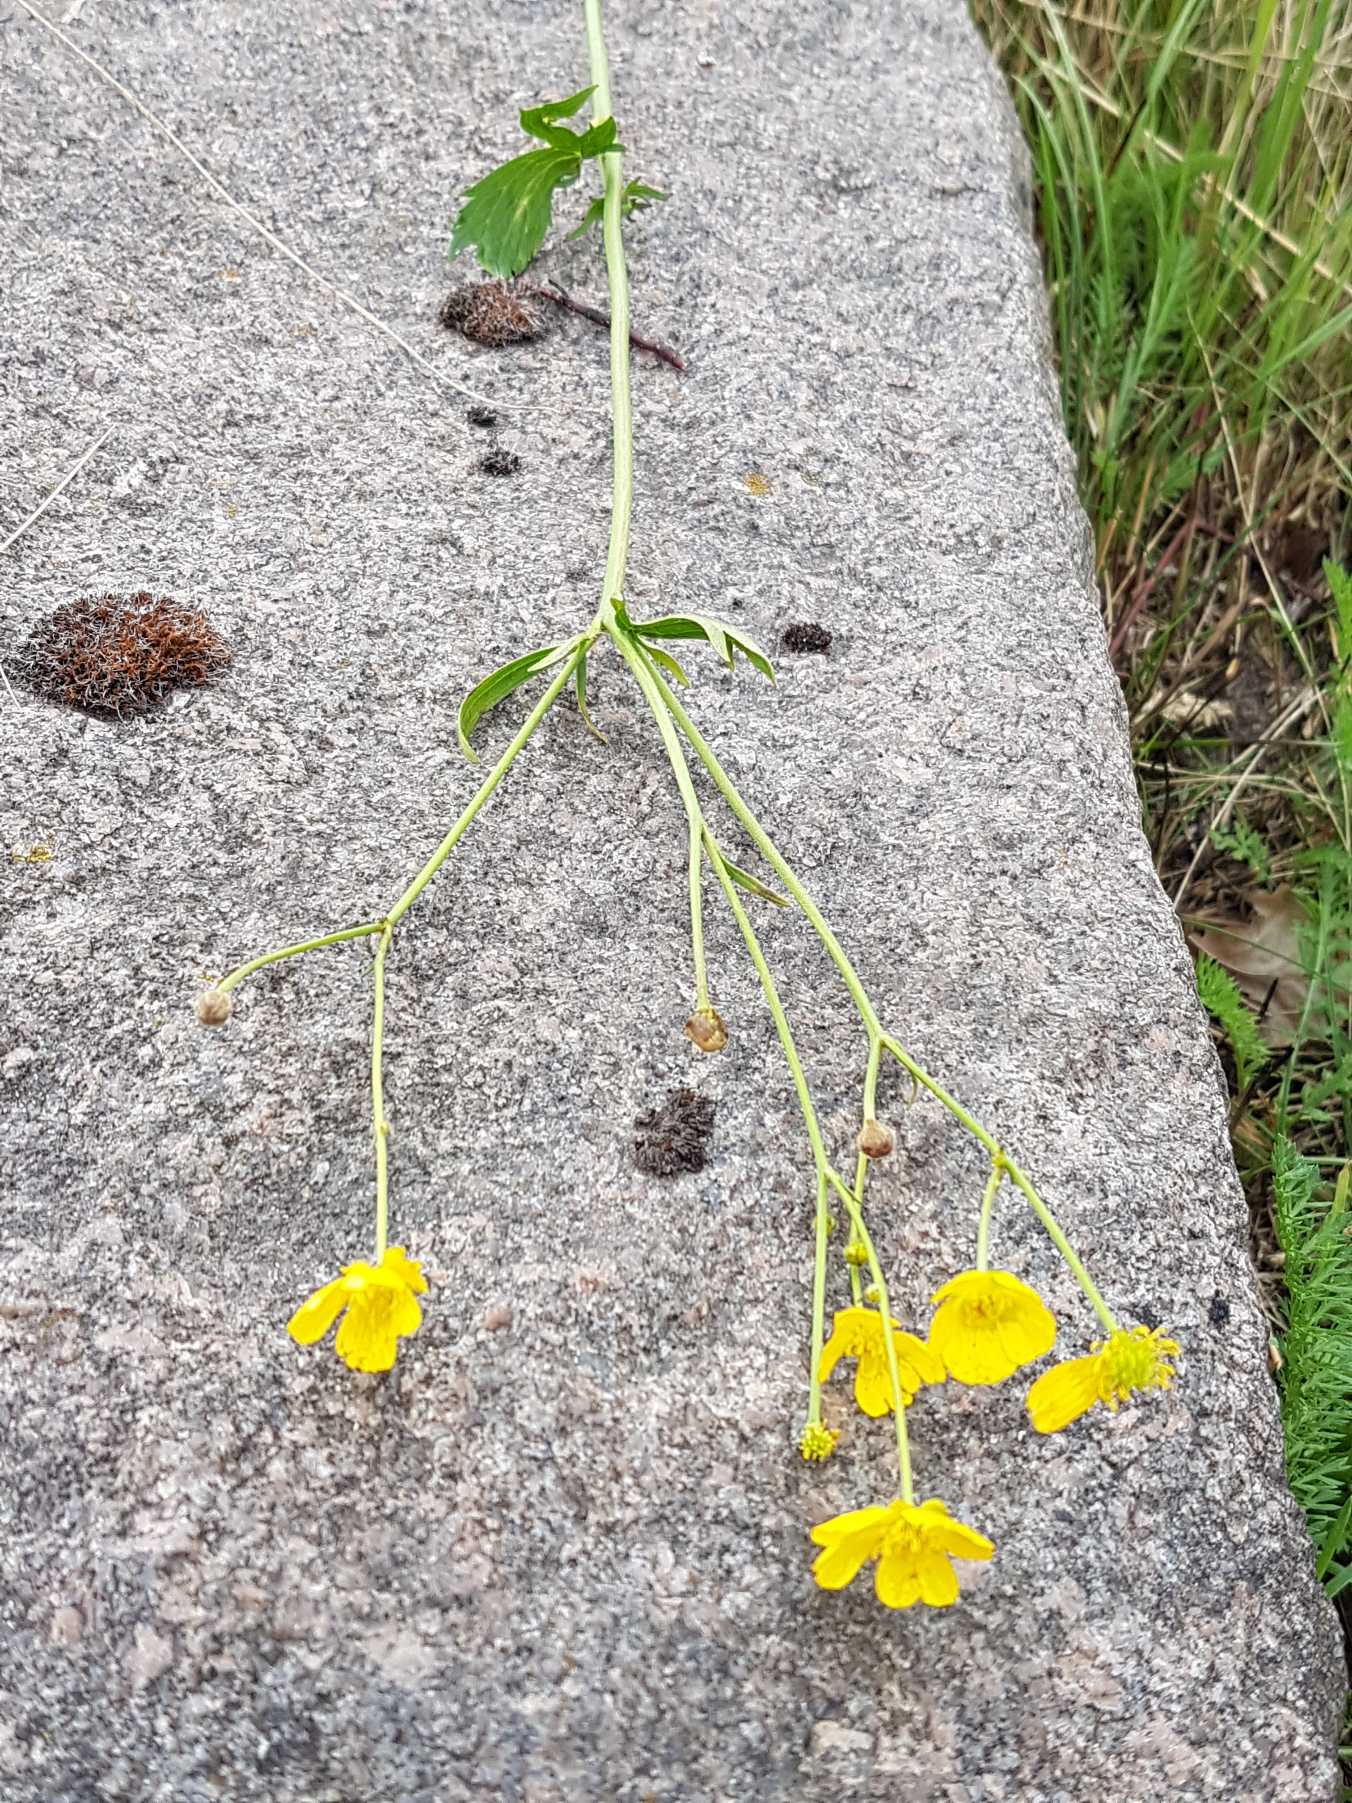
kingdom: Plantae
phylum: Tracheophyta
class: Magnoliopsida
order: Ranunculales
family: Ranunculaceae
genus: Ranunculus
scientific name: Ranunculus acris
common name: Bidende ranunkel
